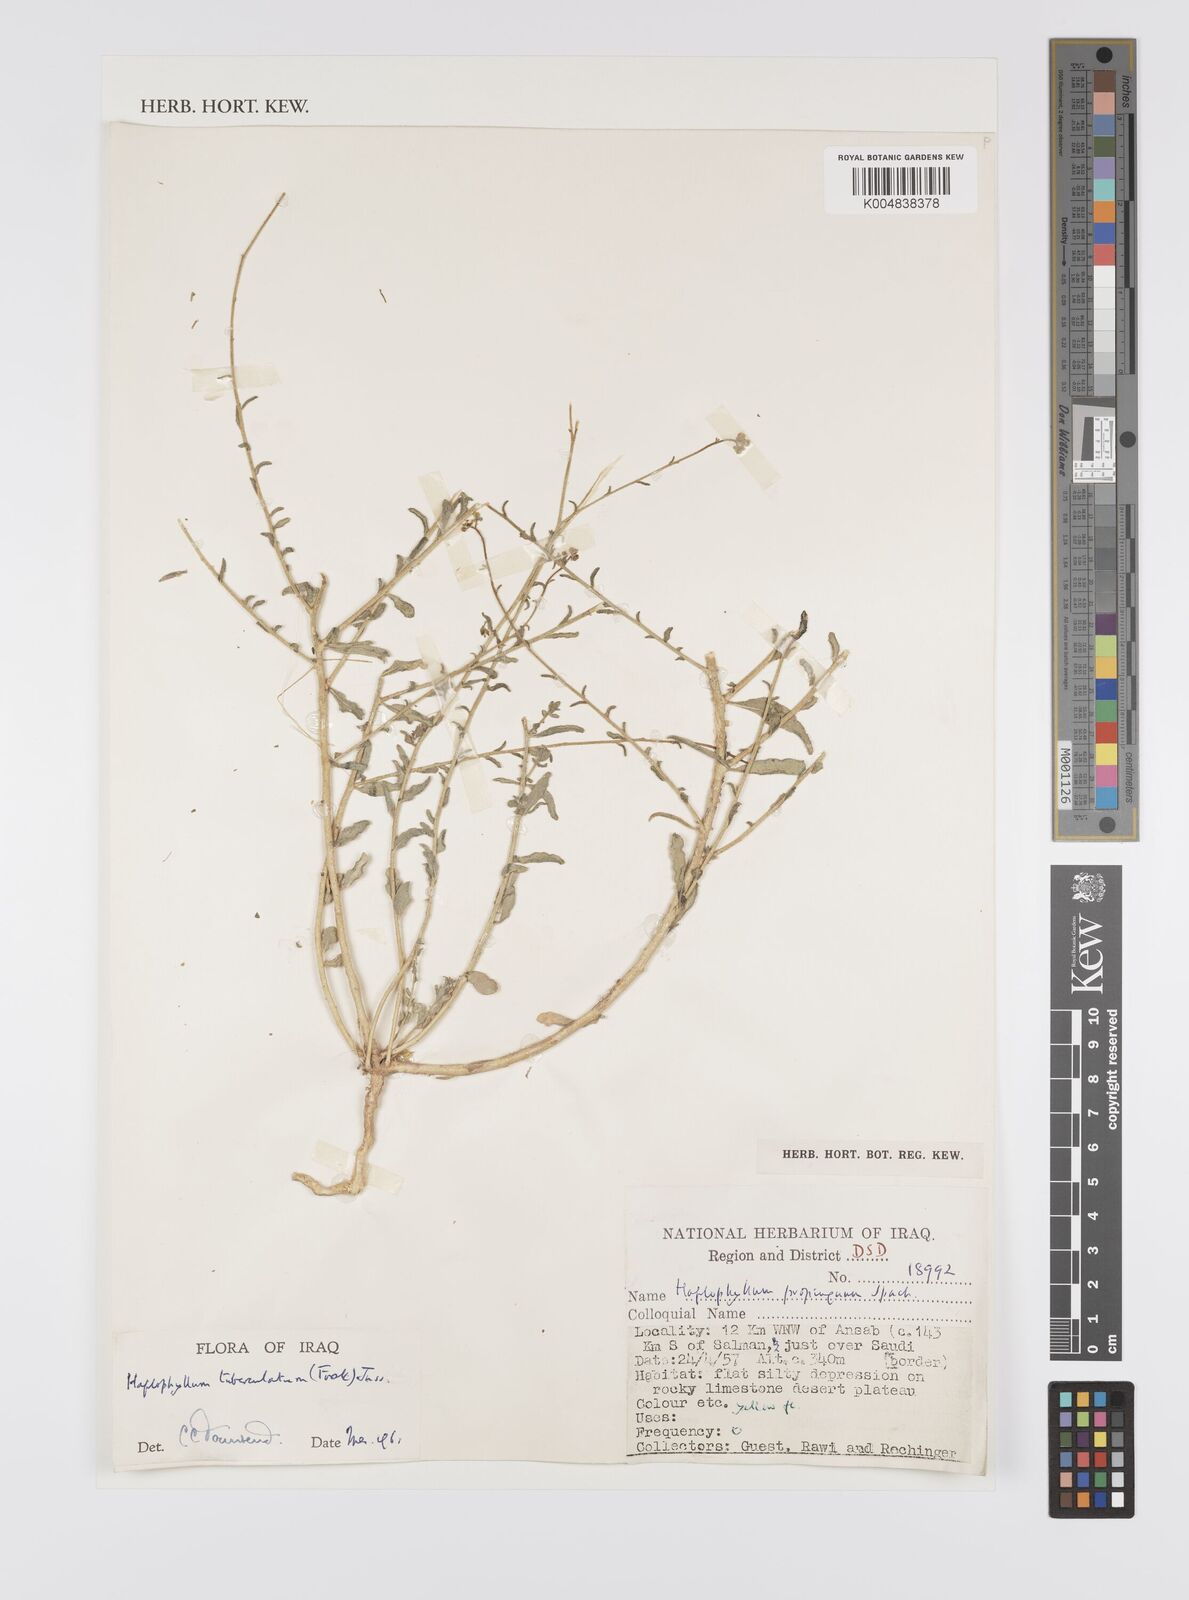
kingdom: Plantae
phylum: Tracheophyta
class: Magnoliopsida
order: Sapindales
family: Rutaceae
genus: Haplophyllum
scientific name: Haplophyllum tuberculatum
